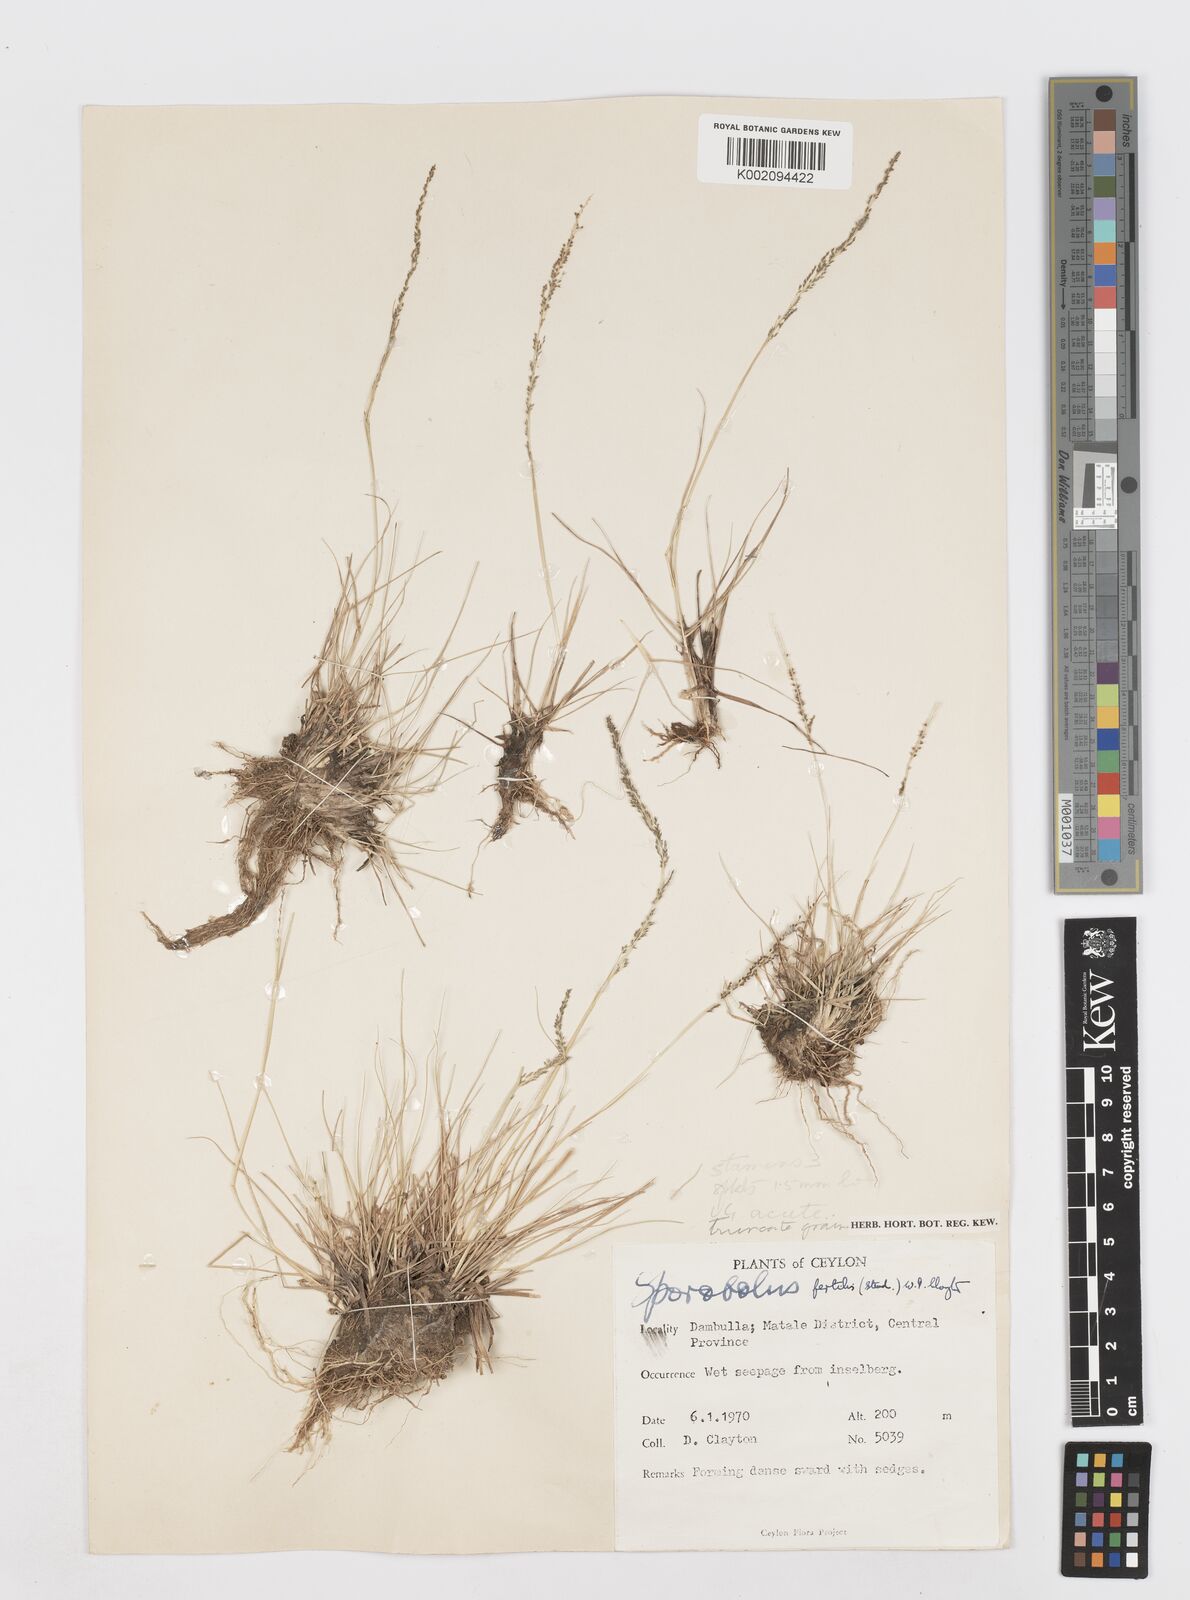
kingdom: Plantae
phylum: Tracheophyta
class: Liliopsida
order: Poales
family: Poaceae
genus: Sporobolus
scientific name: Sporobolus fertilis
